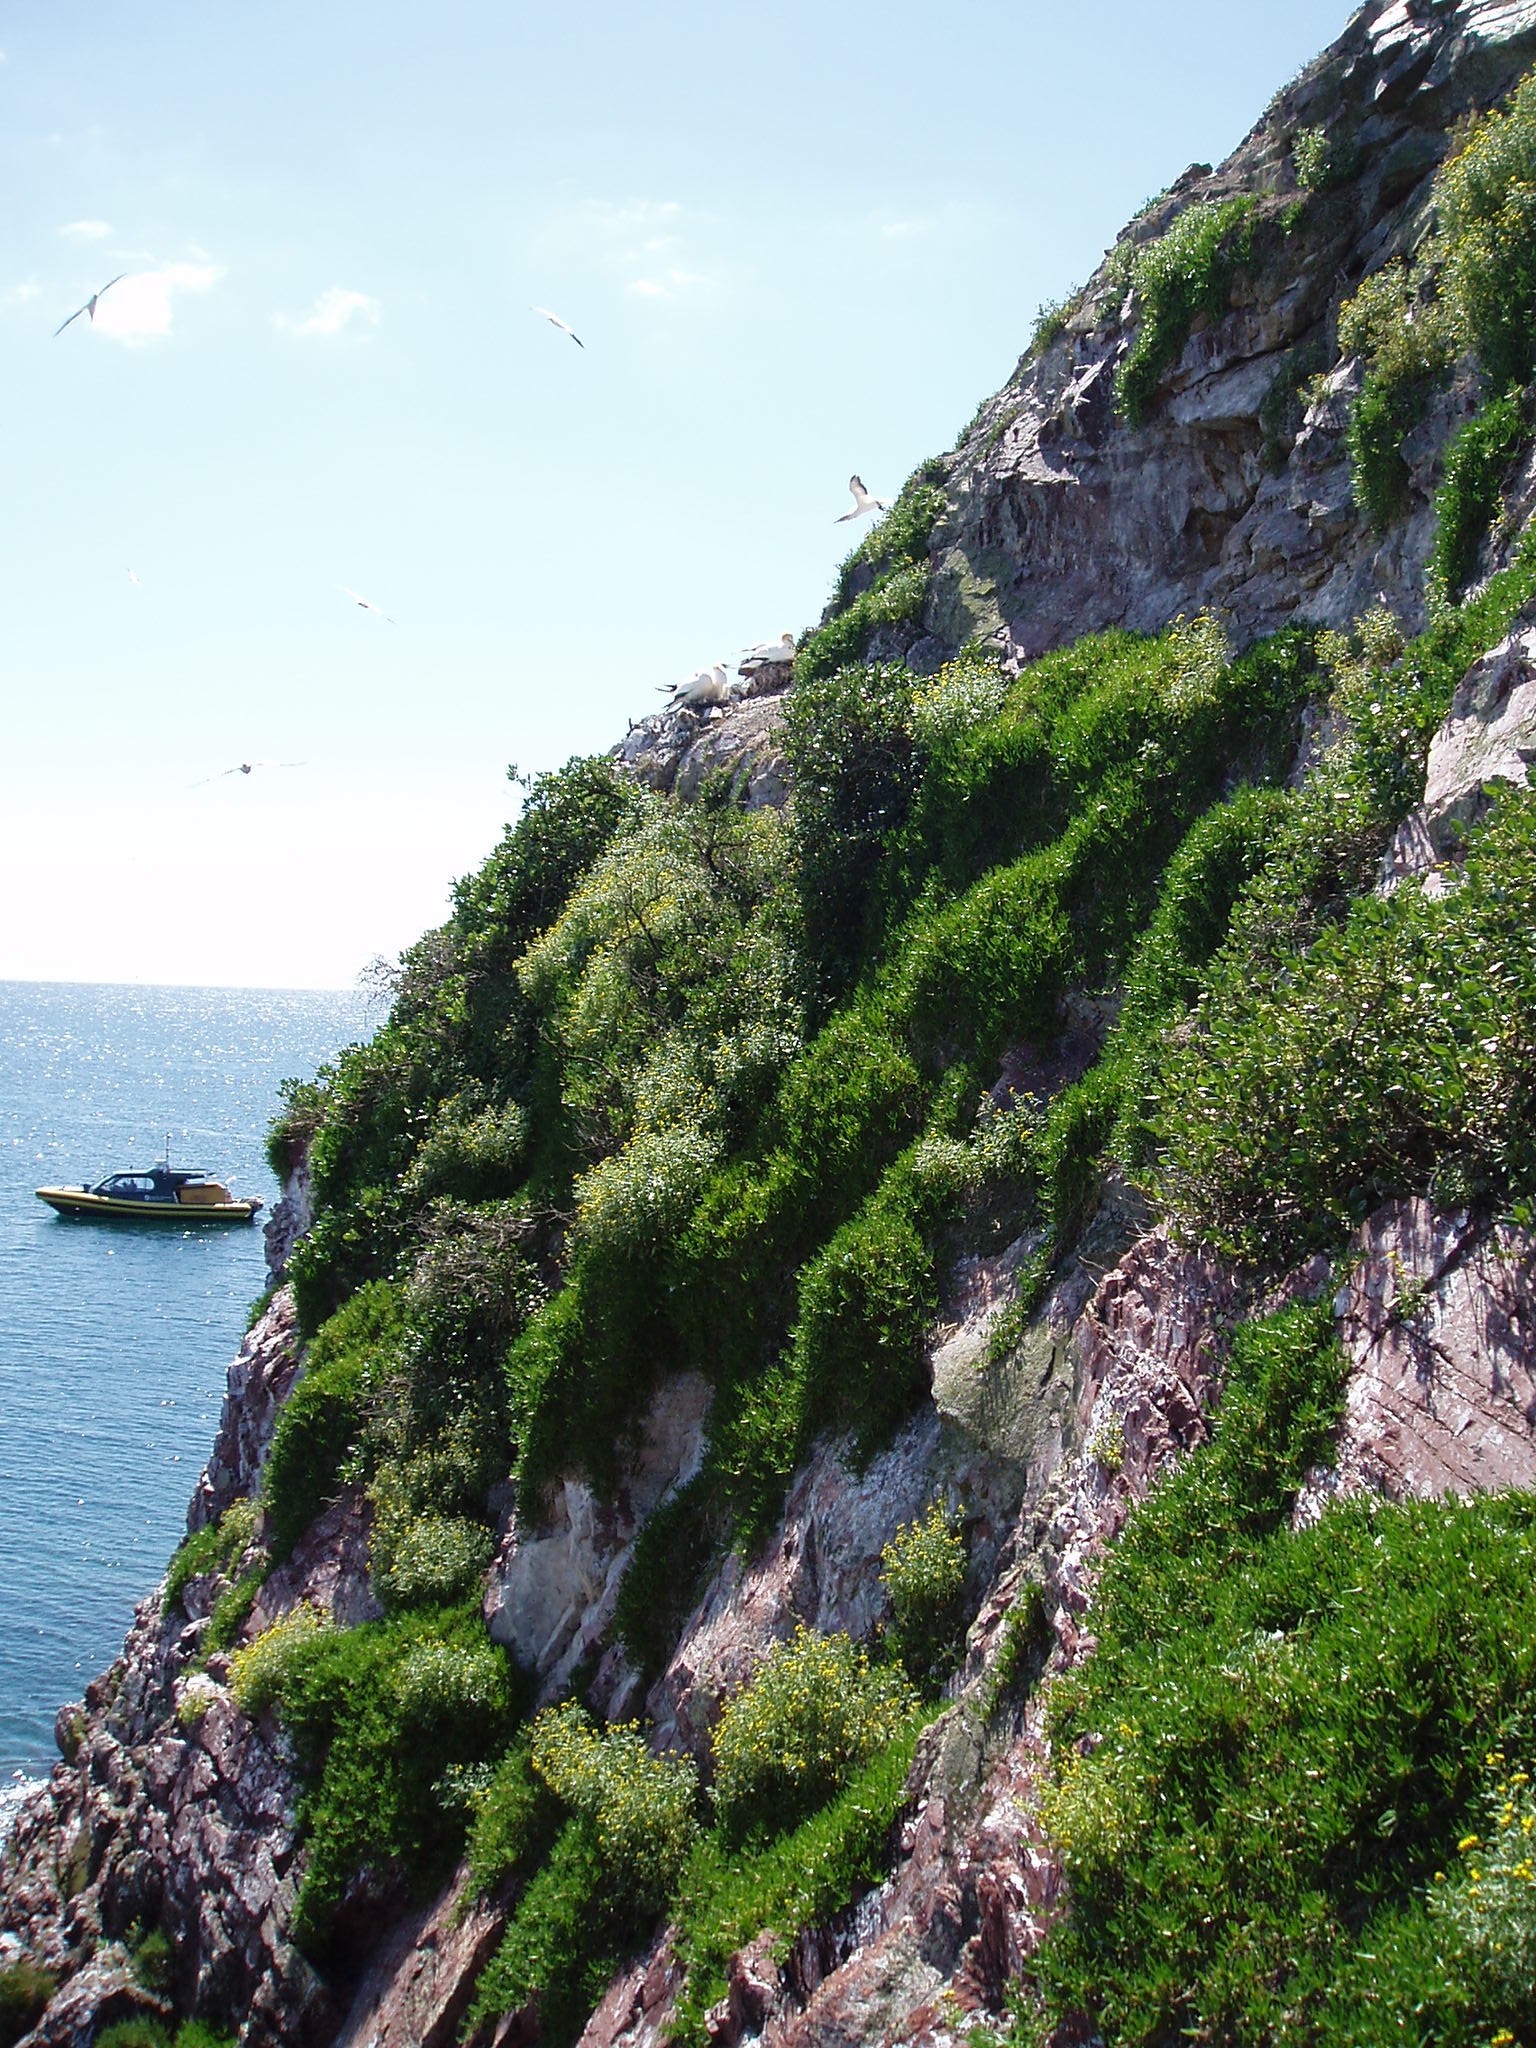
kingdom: Plantae
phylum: Tracheophyta
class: Magnoliopsida
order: Gentianales
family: Rubiaceae
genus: Coprosma
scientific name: Coprosma repens
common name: Tree bedstraw
